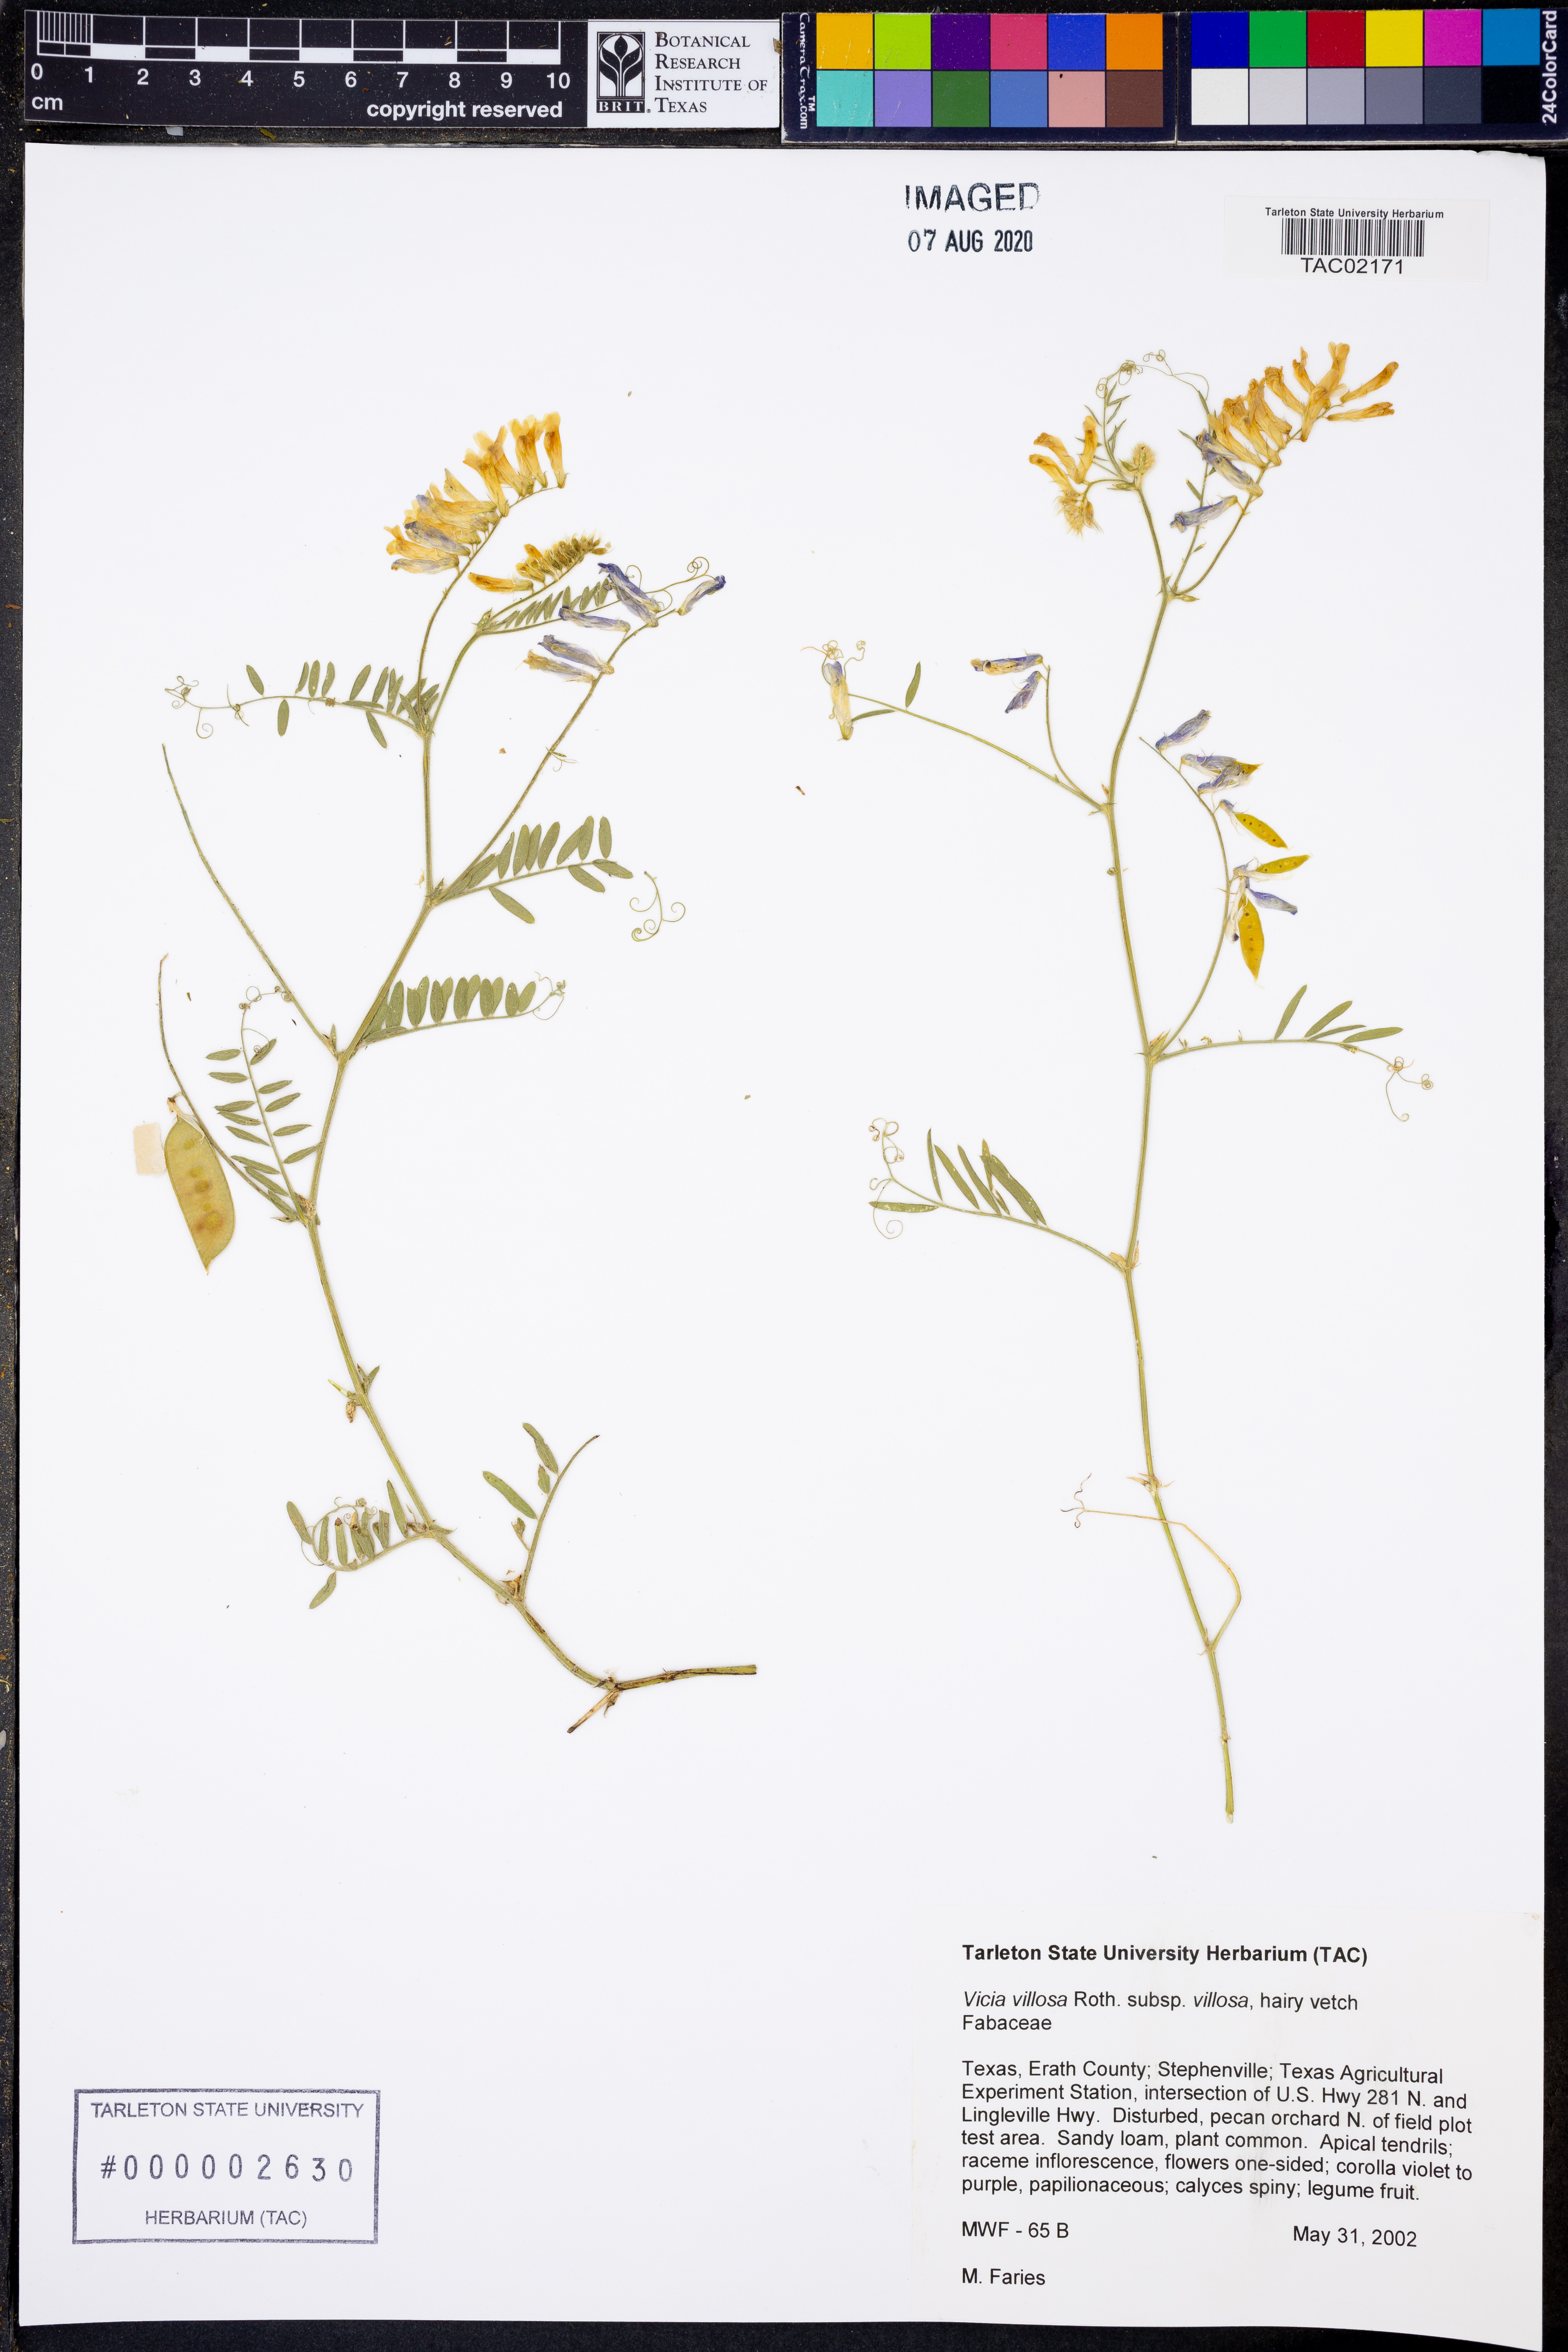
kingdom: Plantae
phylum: Tracheophyta
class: Magnoliopsida
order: Fabales
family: Fabaceae
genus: Vicia
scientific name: Vicia villosa
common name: Fodder vetch
